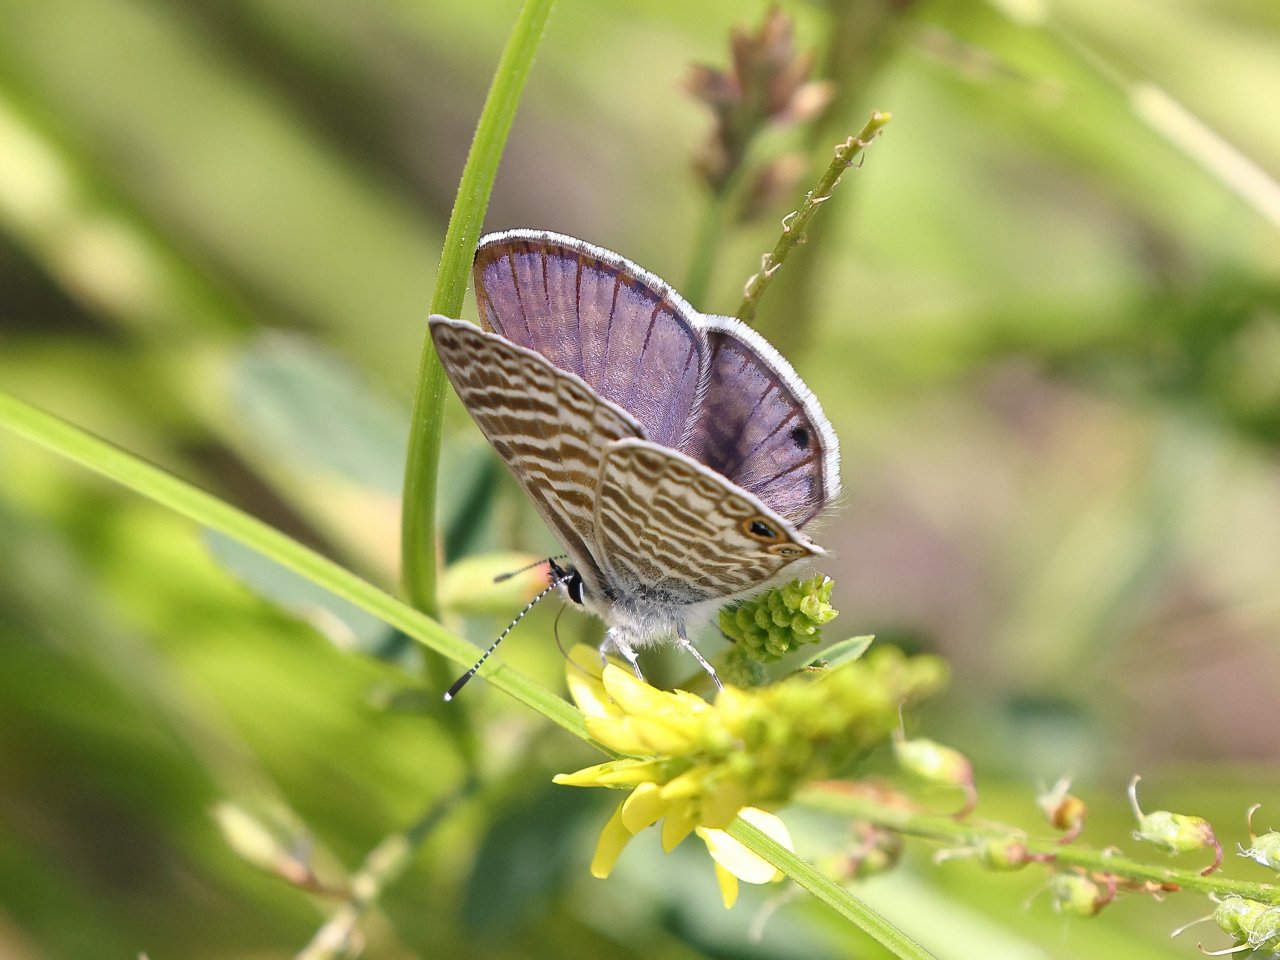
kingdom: Animalia
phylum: Arthropoda
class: Insecta
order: Lepidoptera
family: Lycaenidae
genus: Leptotes
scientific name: Leptotes marina
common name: Marine Blue
